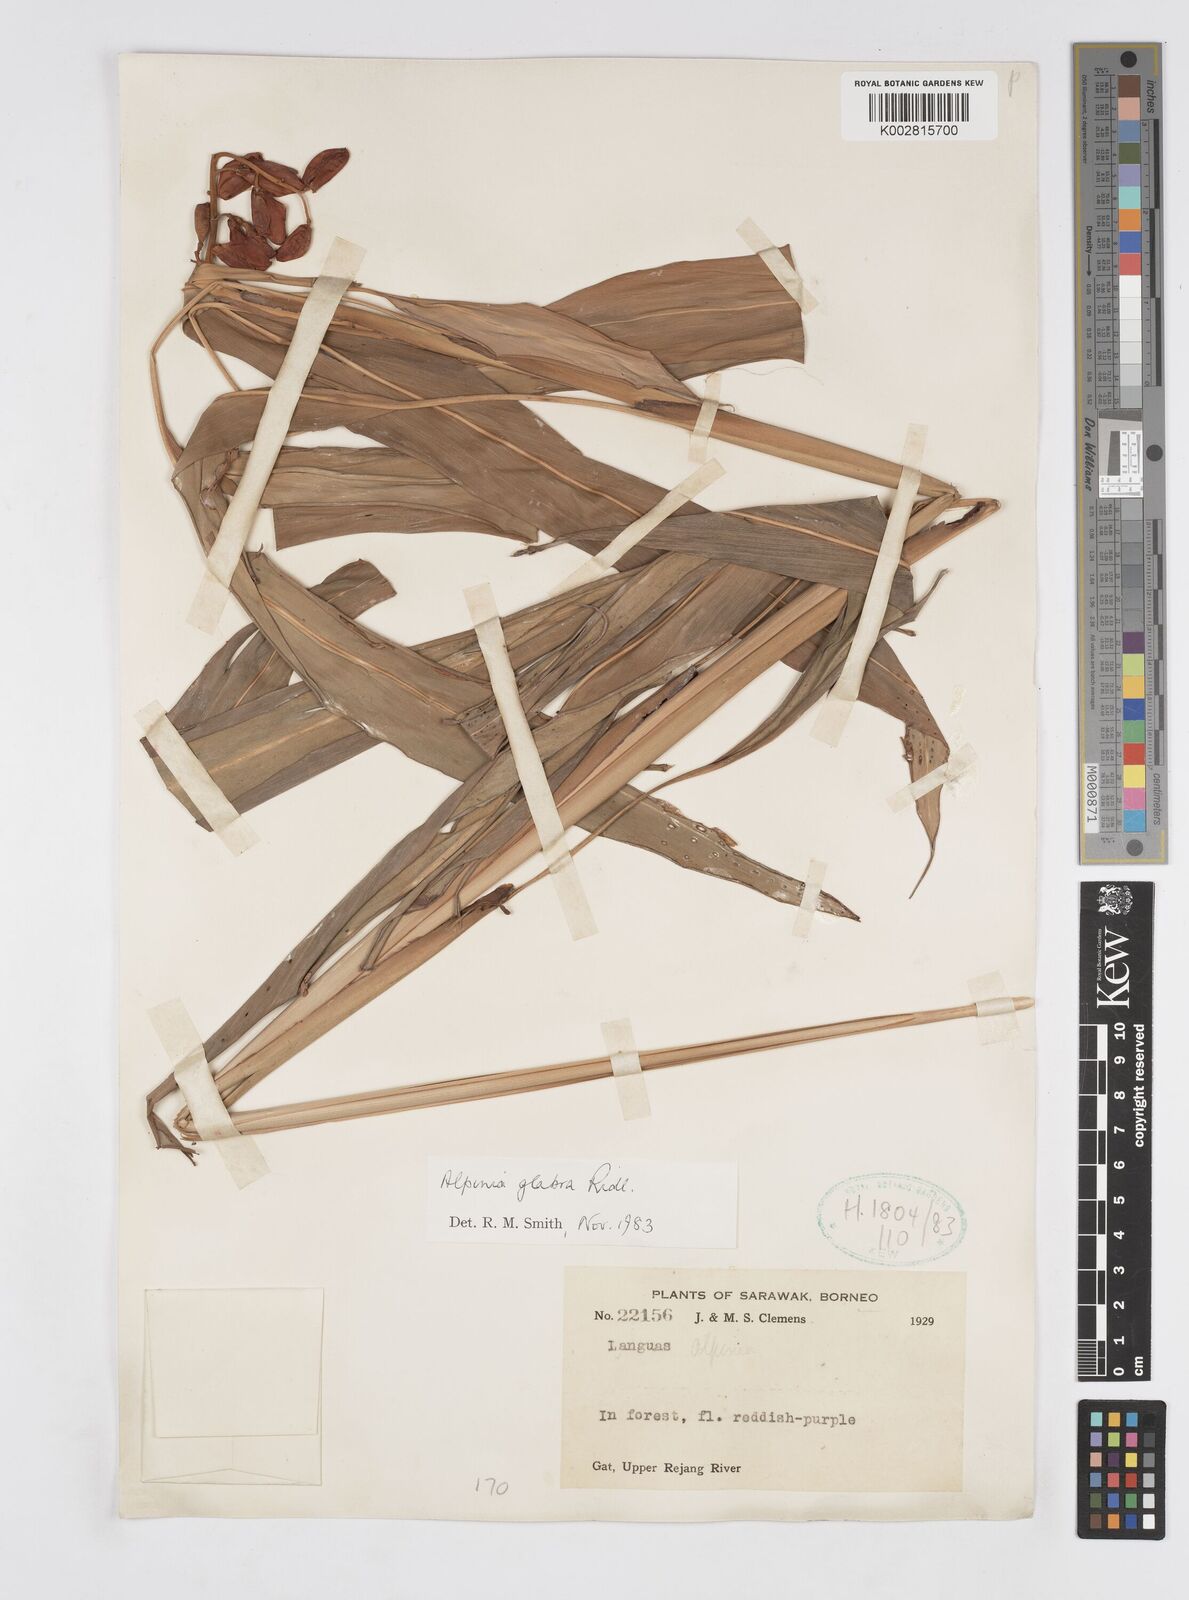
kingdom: Plantae
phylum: Tracheophyta
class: Liliopsida
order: Zingiberales
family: Zingiberaceae
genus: Alpinia
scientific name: Alpinia glabra
